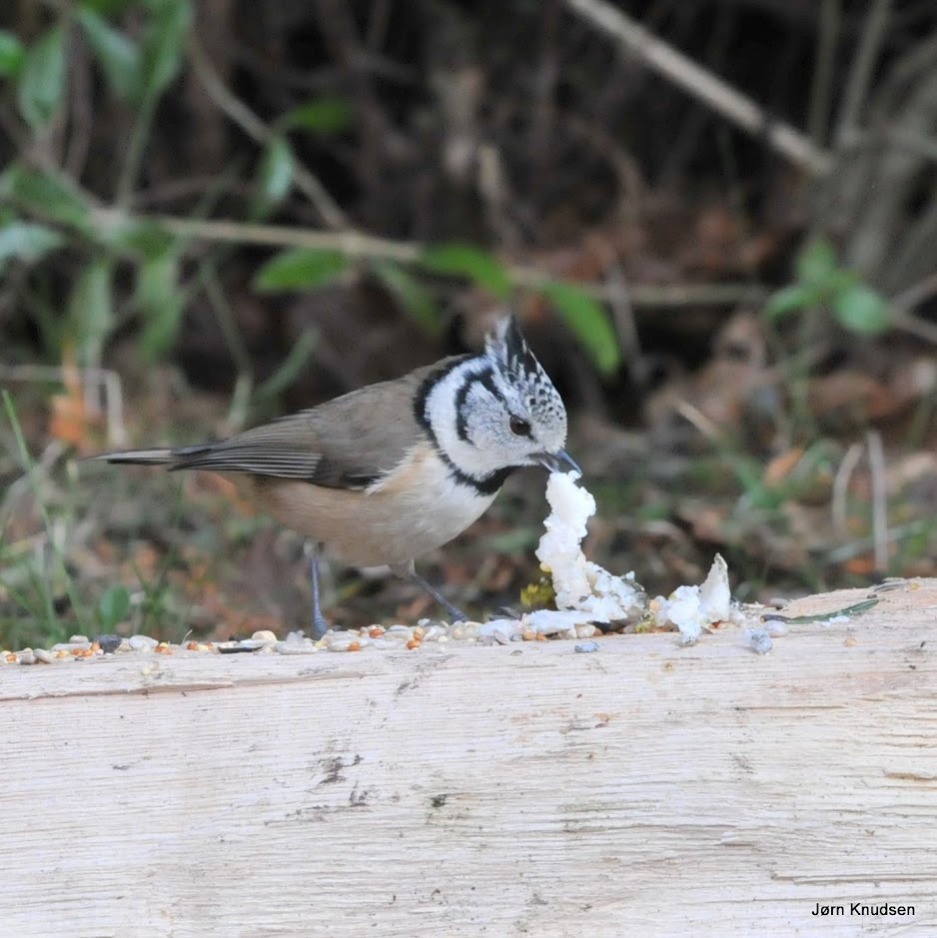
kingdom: Animalia
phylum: Chordata
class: Aves
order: Passeriformes
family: Paridae
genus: Lophophanes
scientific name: Lophophanes cristatus
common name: Topmejse
